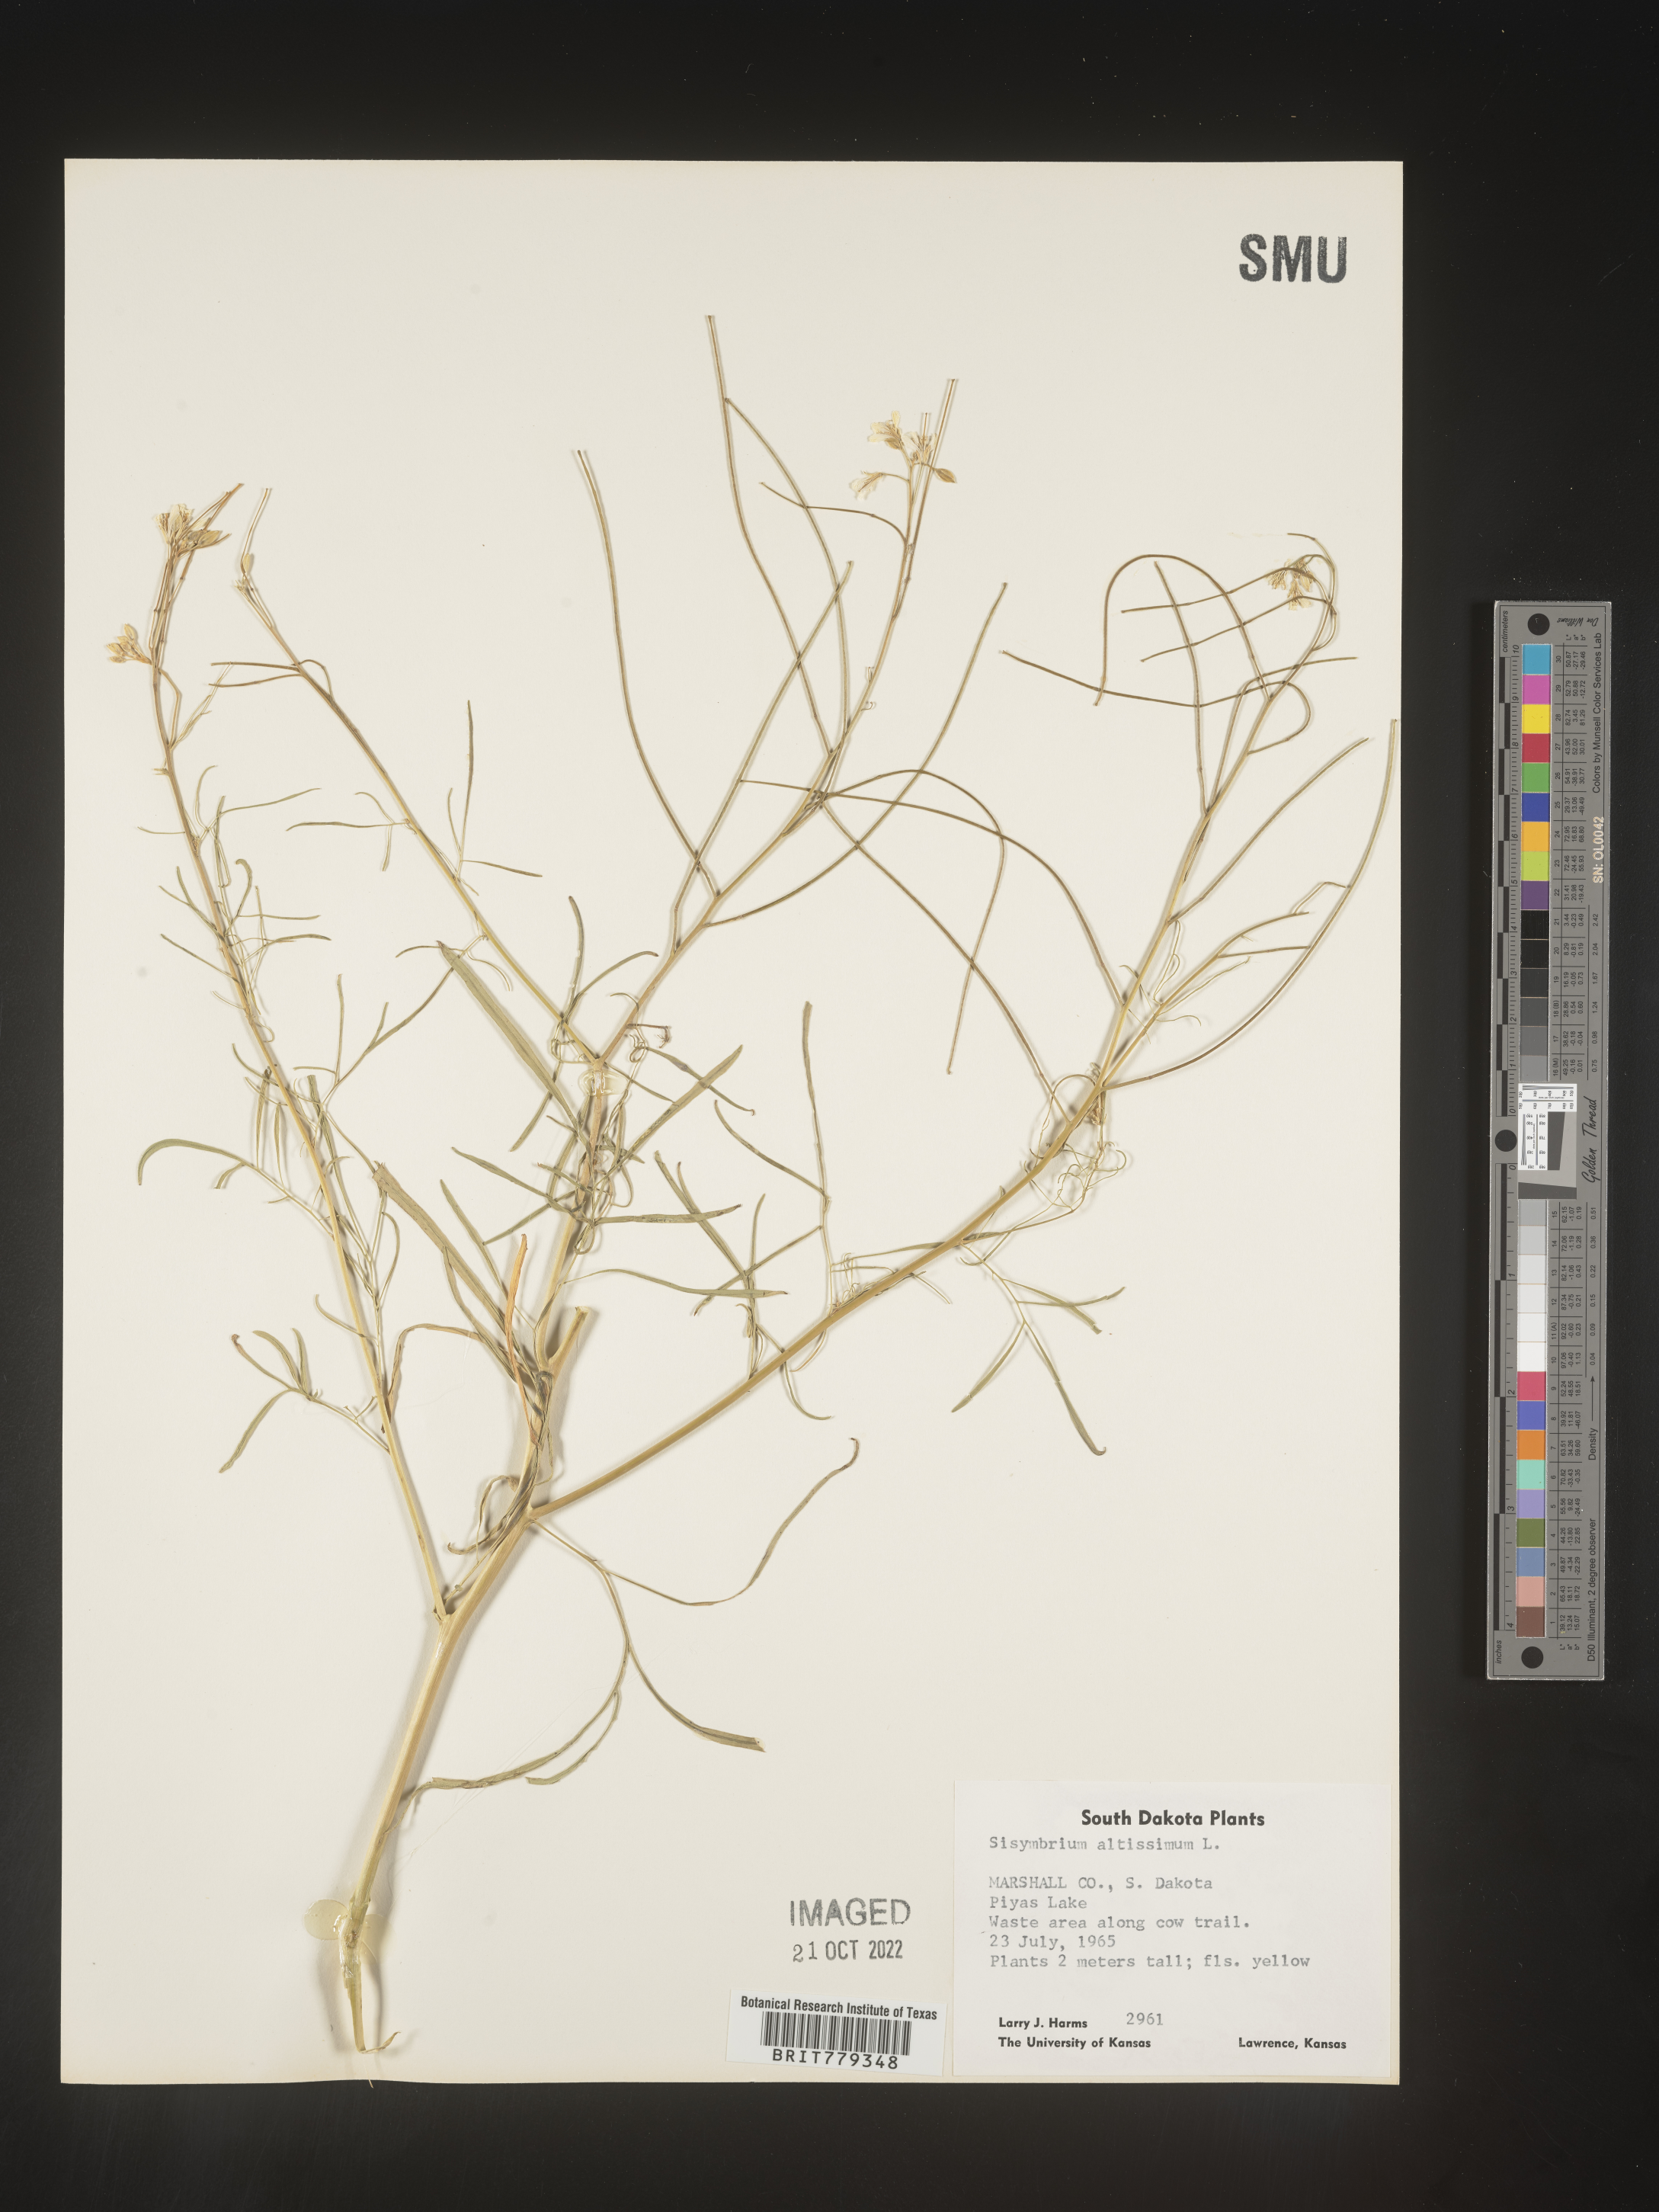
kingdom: Plantae
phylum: Tracheophyta
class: Magnoliopsida
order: Brassicales
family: Brassicaceae
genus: Sisymbrium
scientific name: Sisymbrium altissimum
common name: Tall rocket
